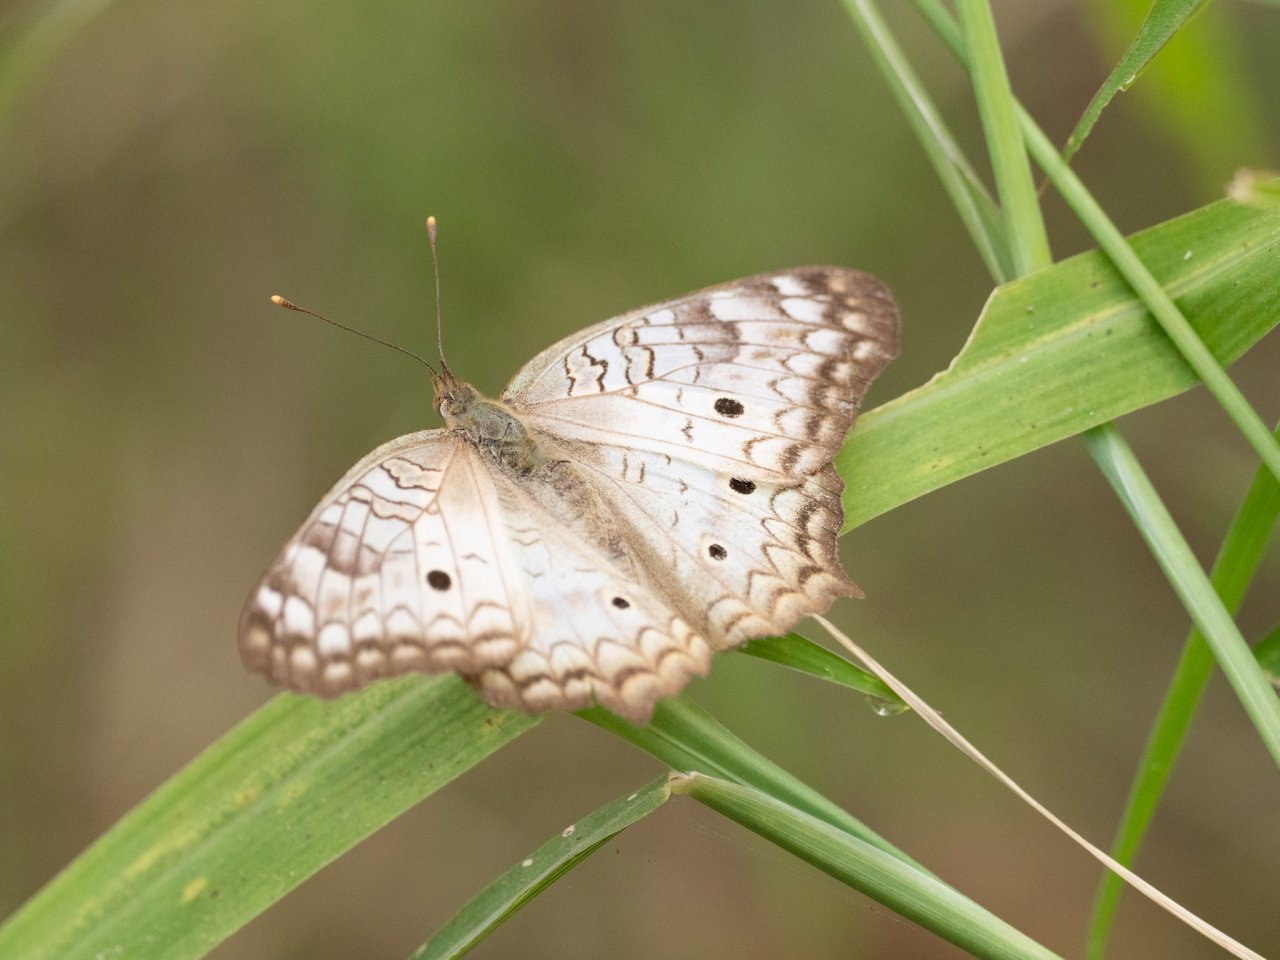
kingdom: Animalia
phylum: Arthropoda
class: Insecta
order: Lepidoptera
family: Nymphalidae
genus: Anartia
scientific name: Anartia jatrophae
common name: White Peacock
